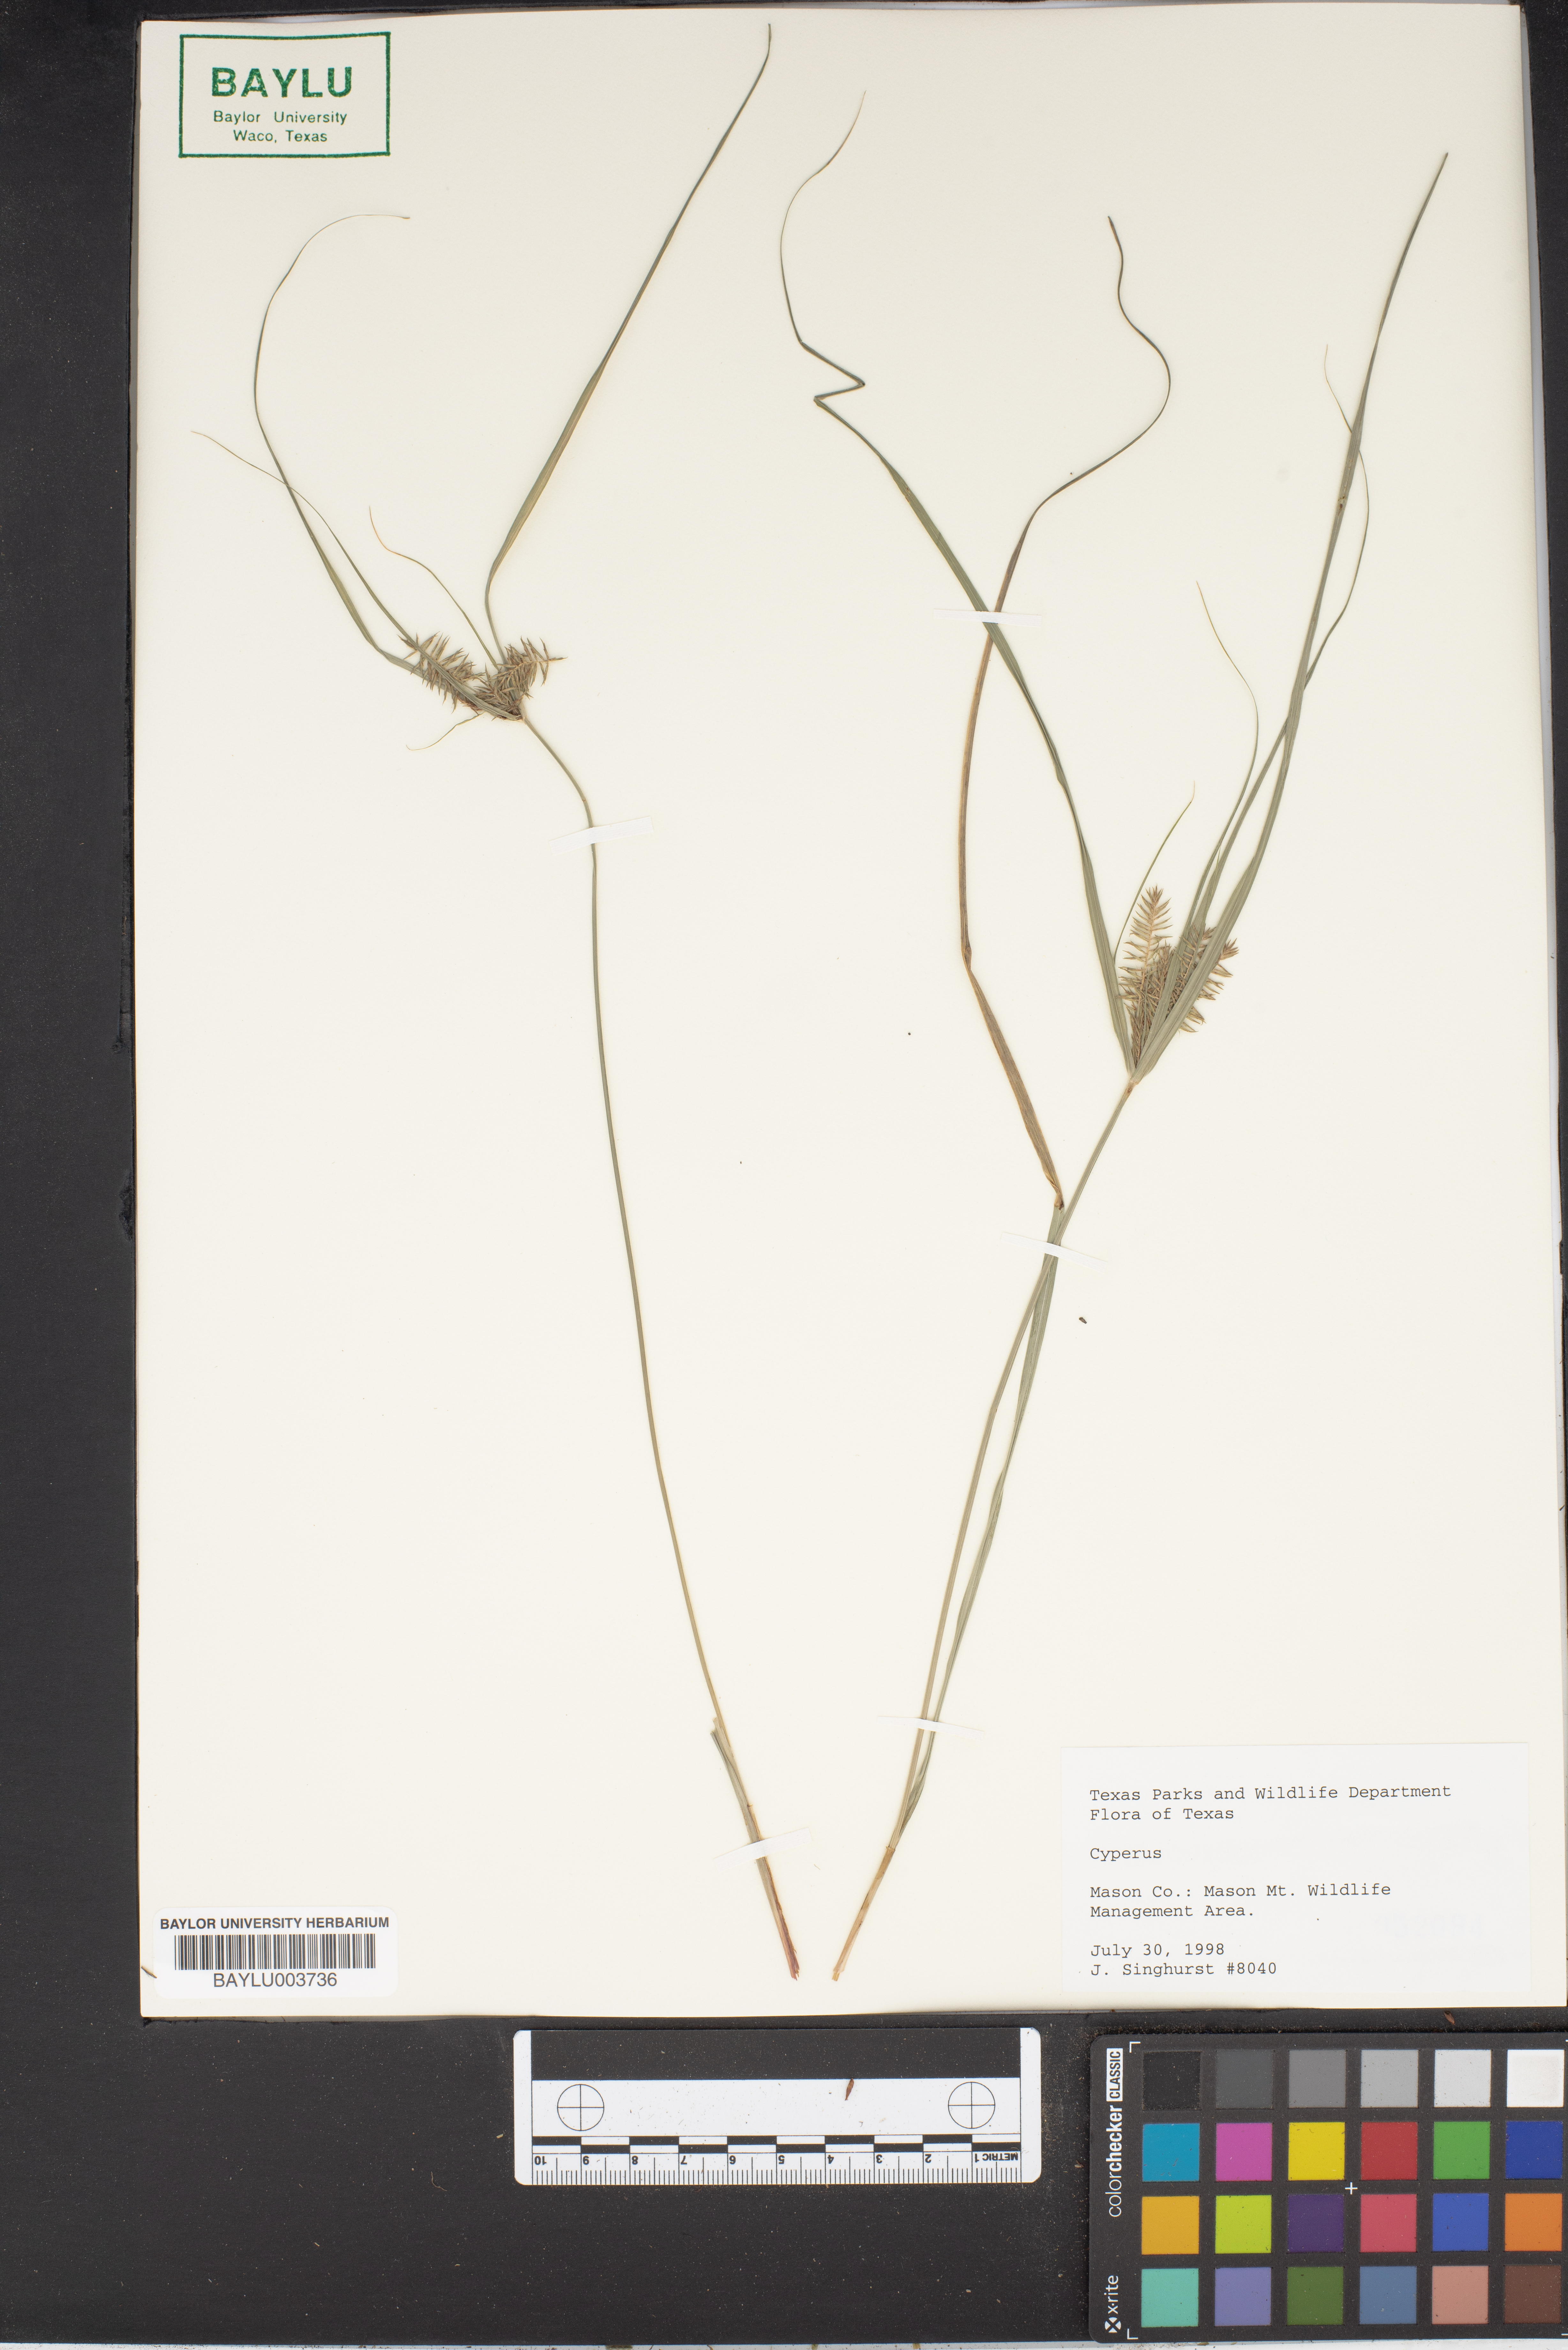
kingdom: Plantae
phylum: Tracheophyta
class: Liliopsida
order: Poales
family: Cyperaceae
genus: Cyperus
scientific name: Cyperus
